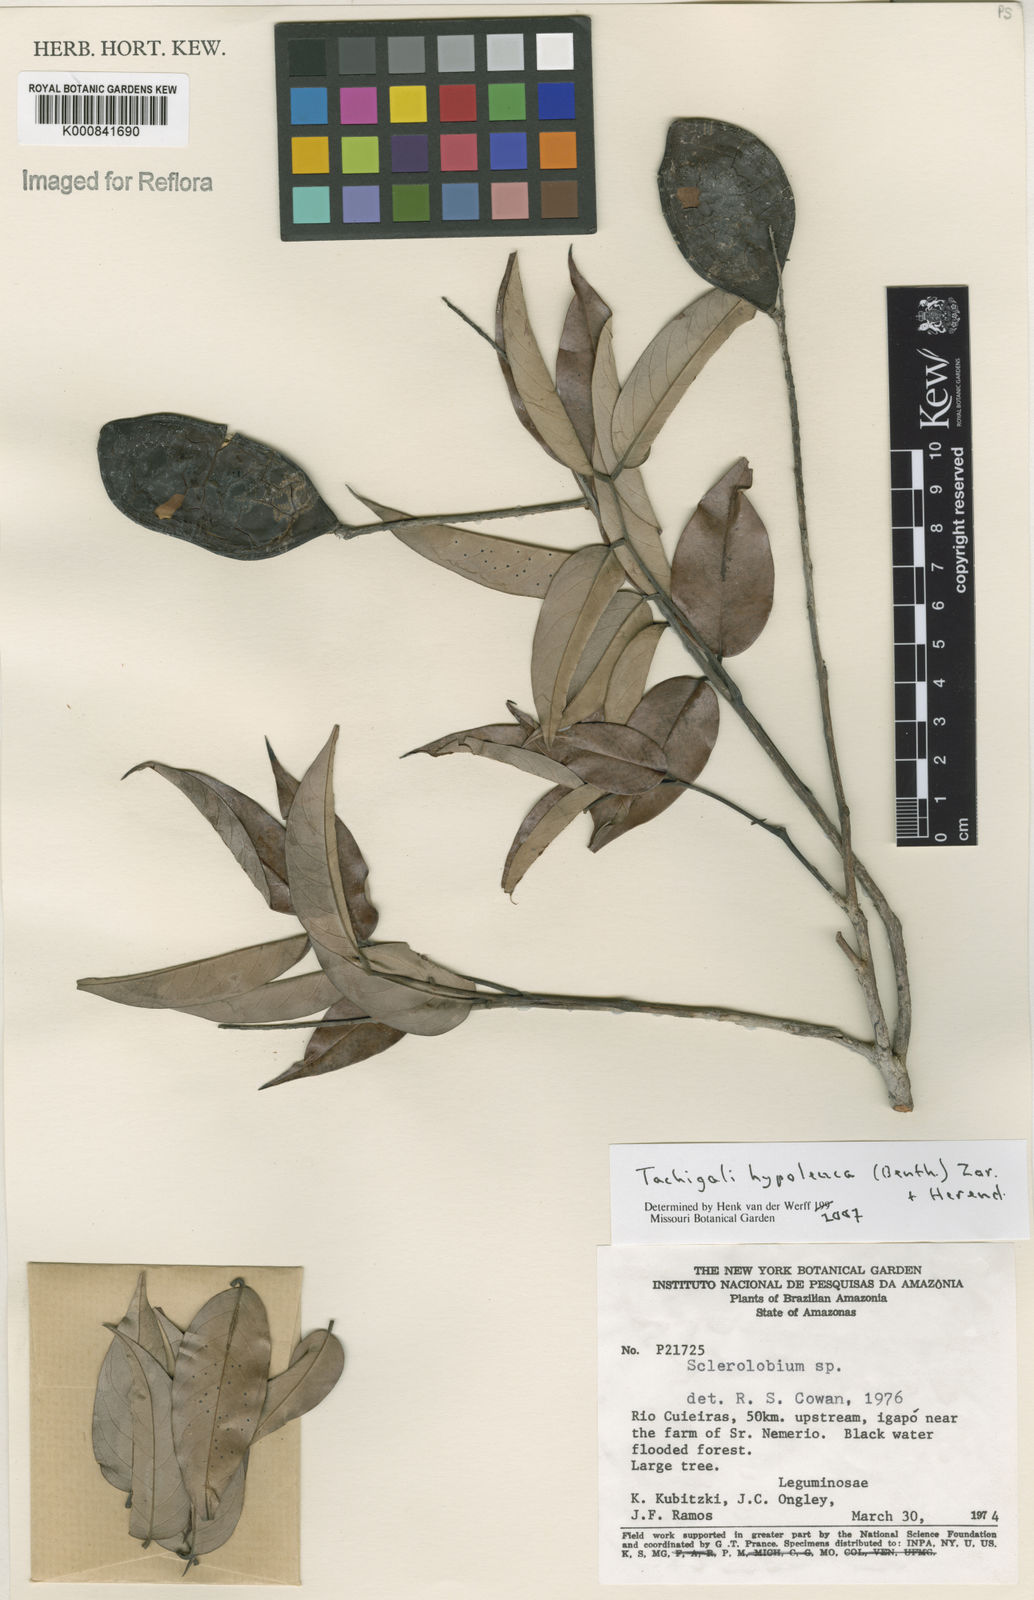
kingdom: Plantae
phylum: Tracheophyta
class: Magnoliopsida
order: Fabales
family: Fabaceae
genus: Tachigali
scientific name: Tachigali hypoleuca
